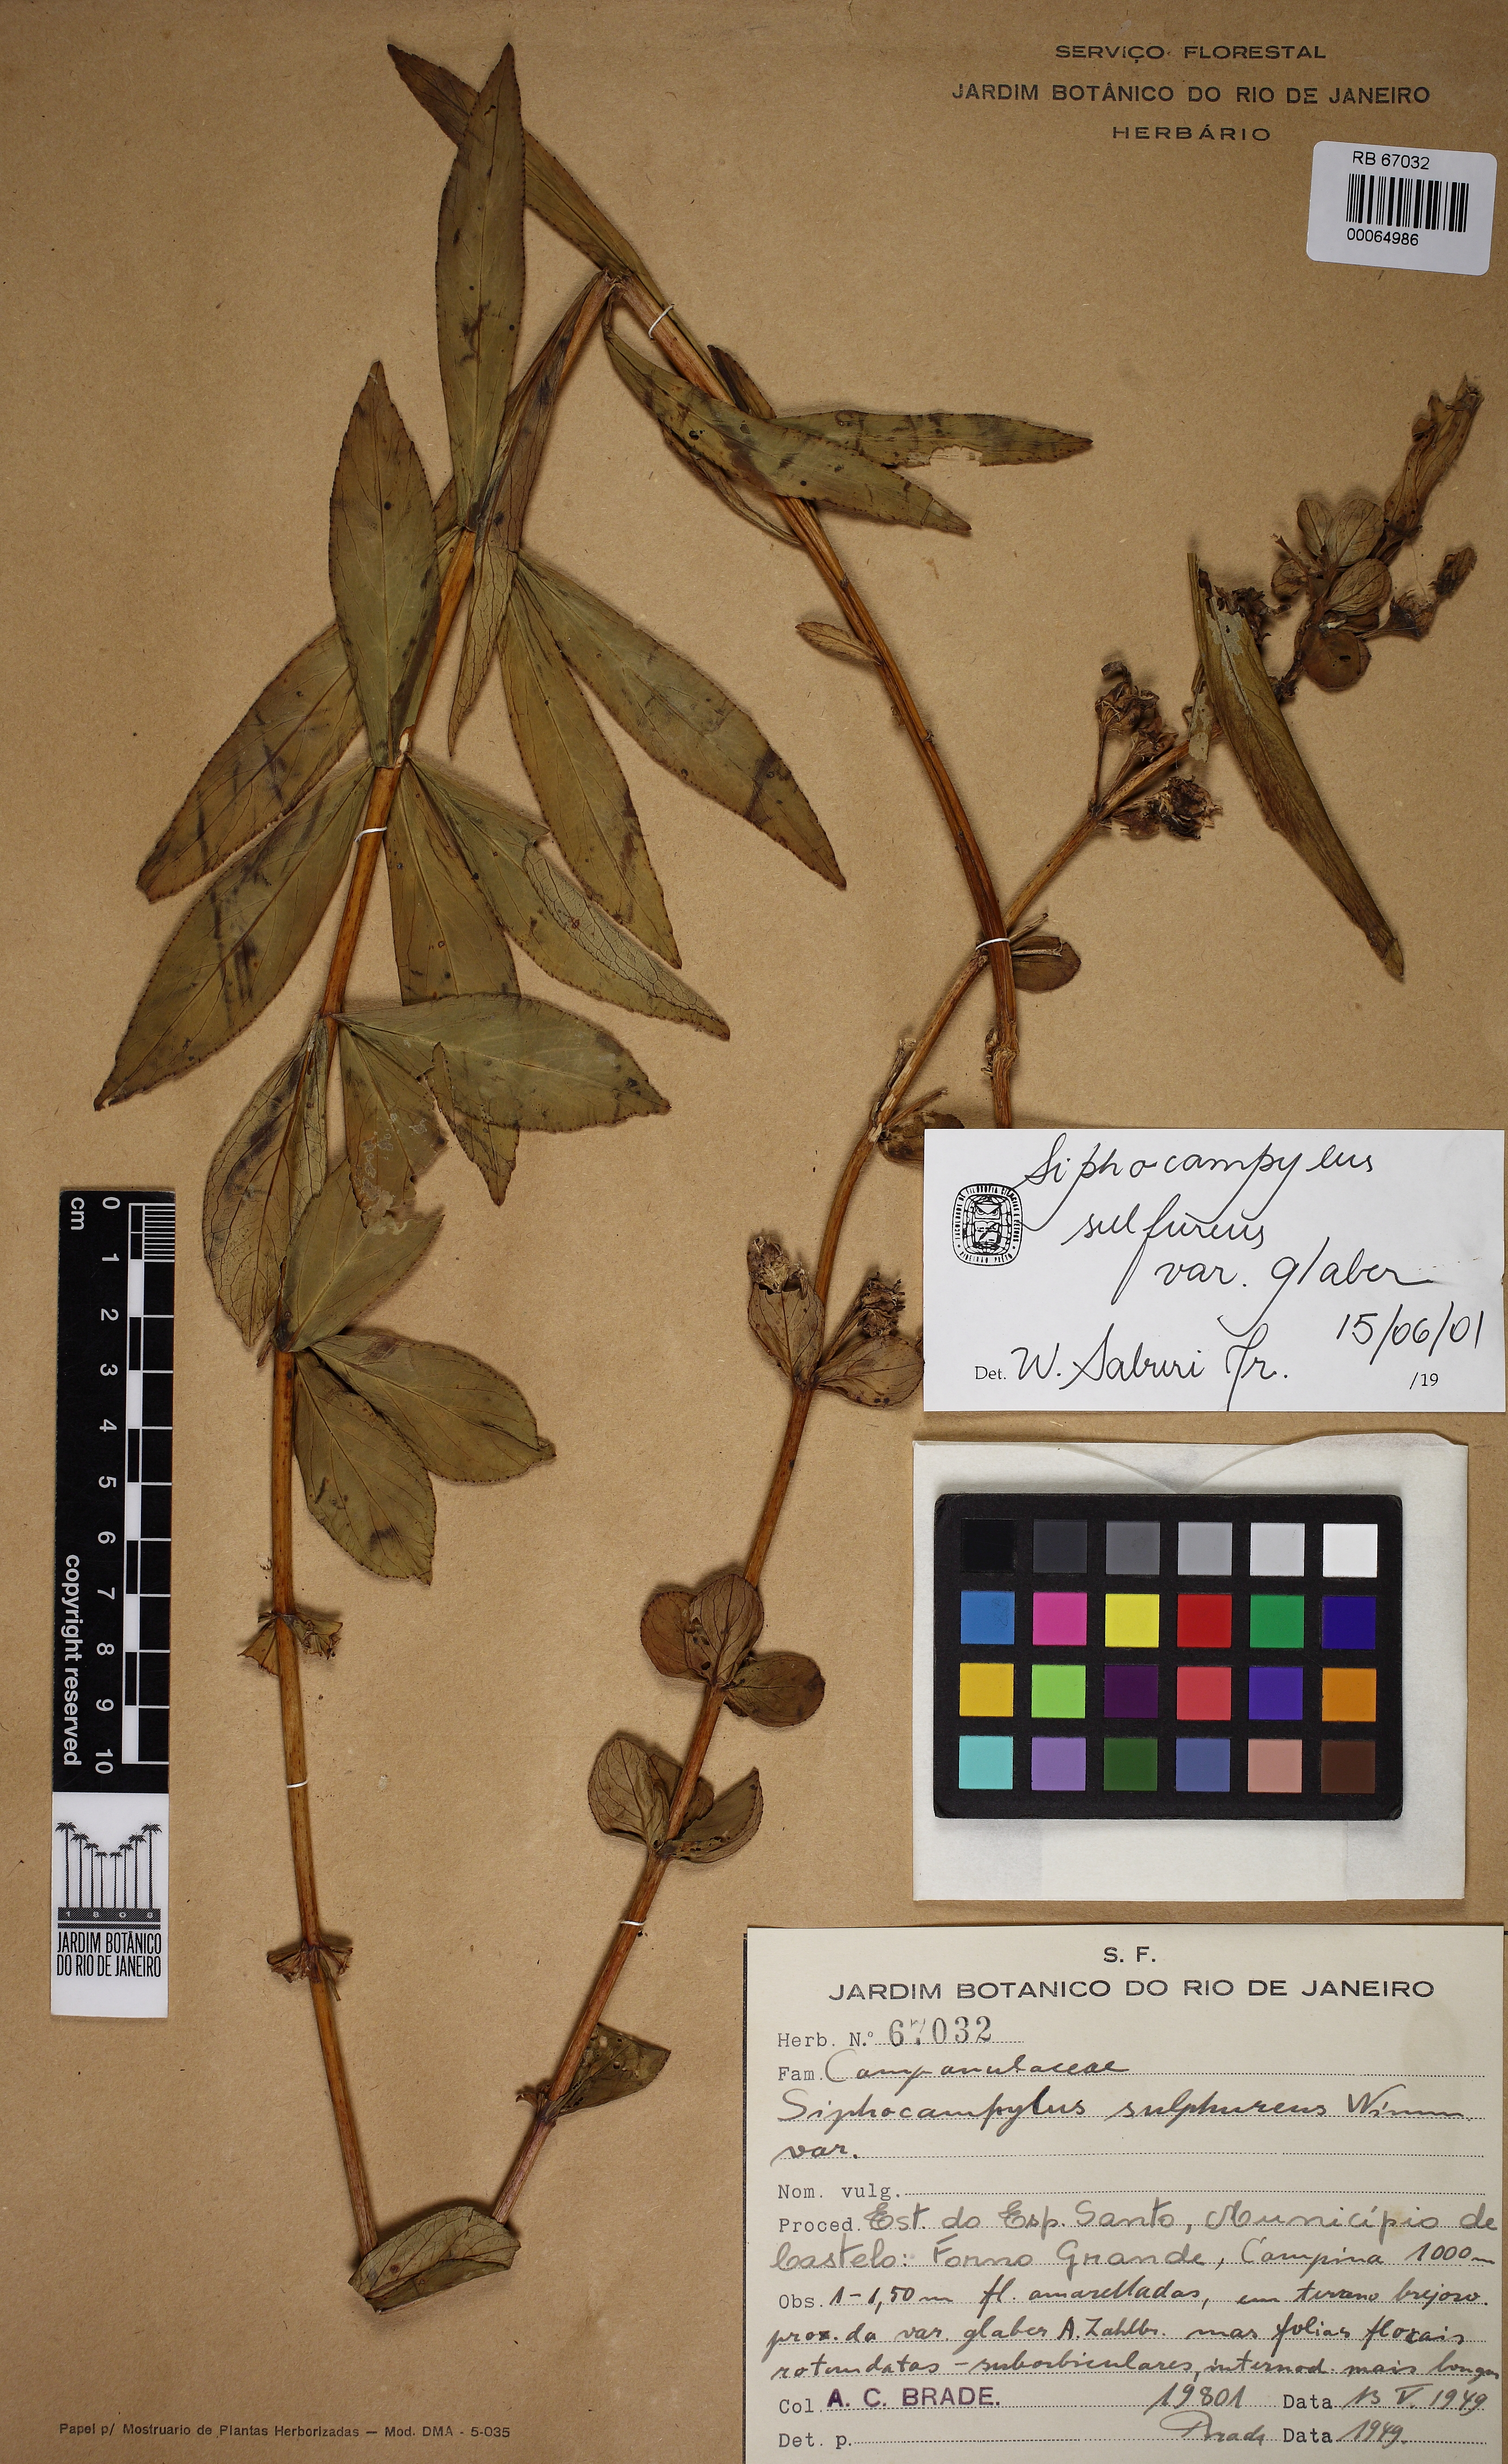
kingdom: Plantae
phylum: Tracheophyta
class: Magnoliopsida
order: Asterales
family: Campanulaceae
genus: Siphocampylus
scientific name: Siphocampylus sulfureus
